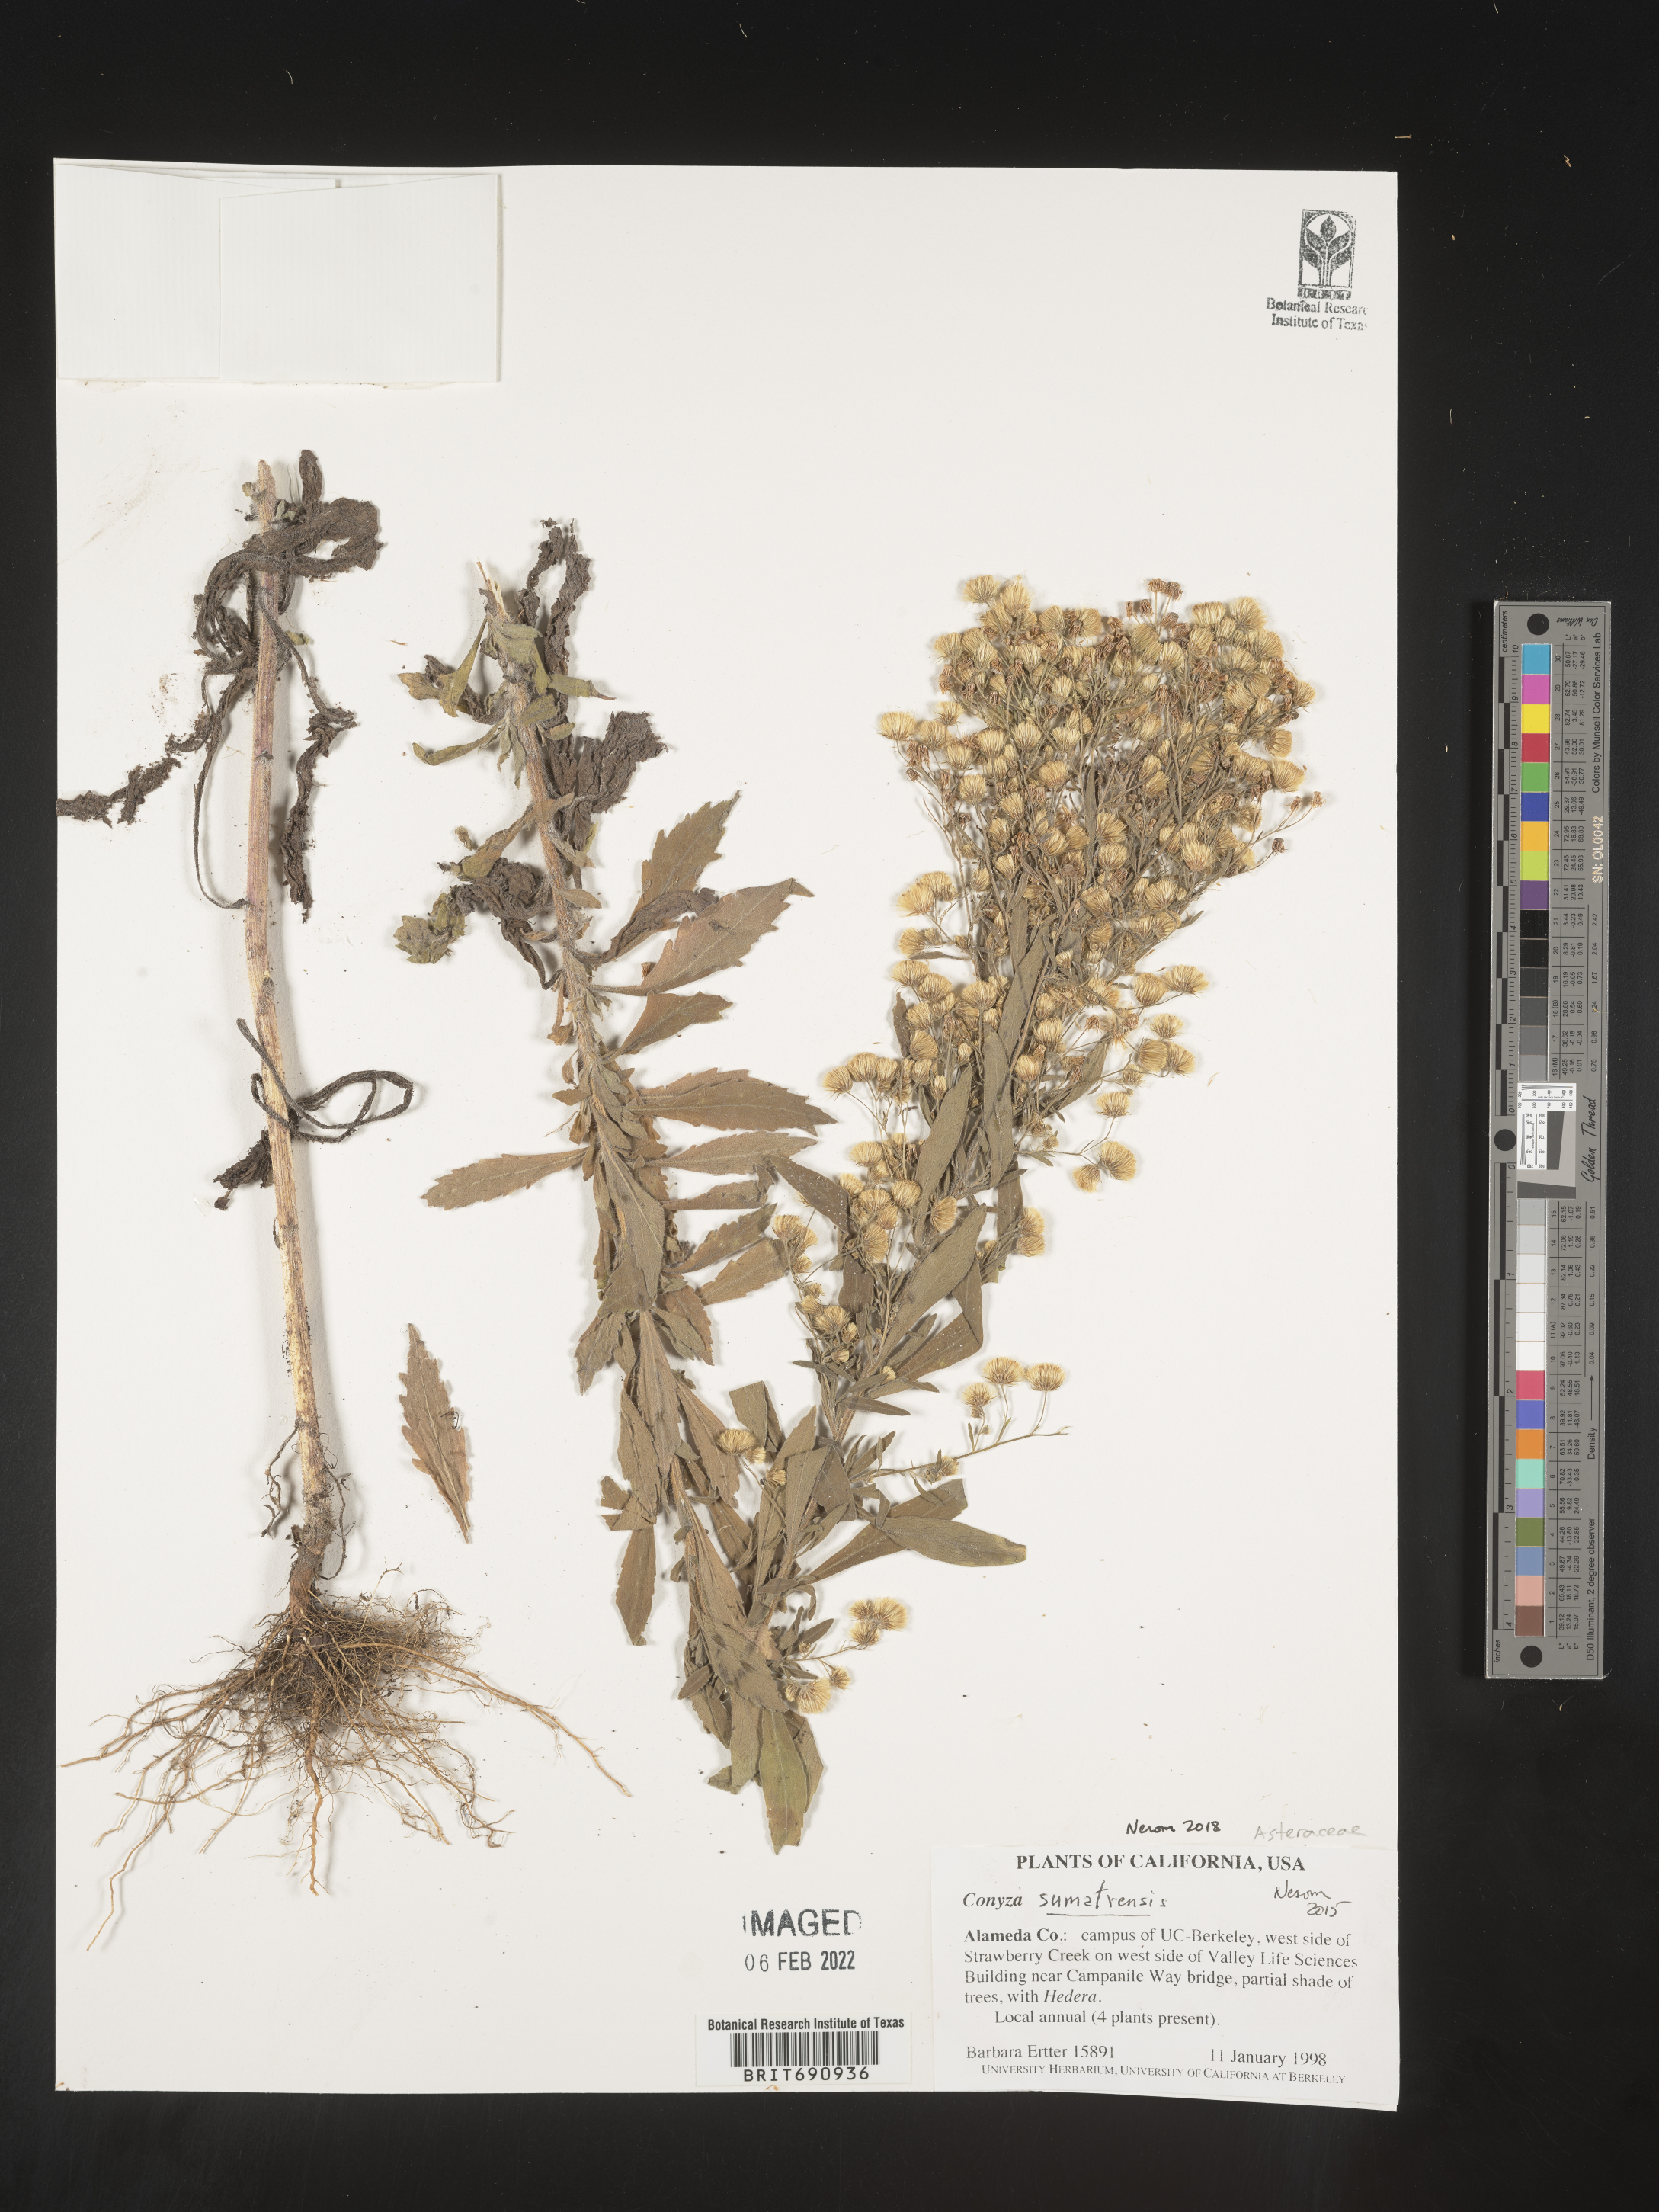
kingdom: Plantae
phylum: Tracheophyta
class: Magnoliopsida
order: Asterales
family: Asteraceae
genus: Erigeron
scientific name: Erigeron sumatrensis
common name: Daisy
